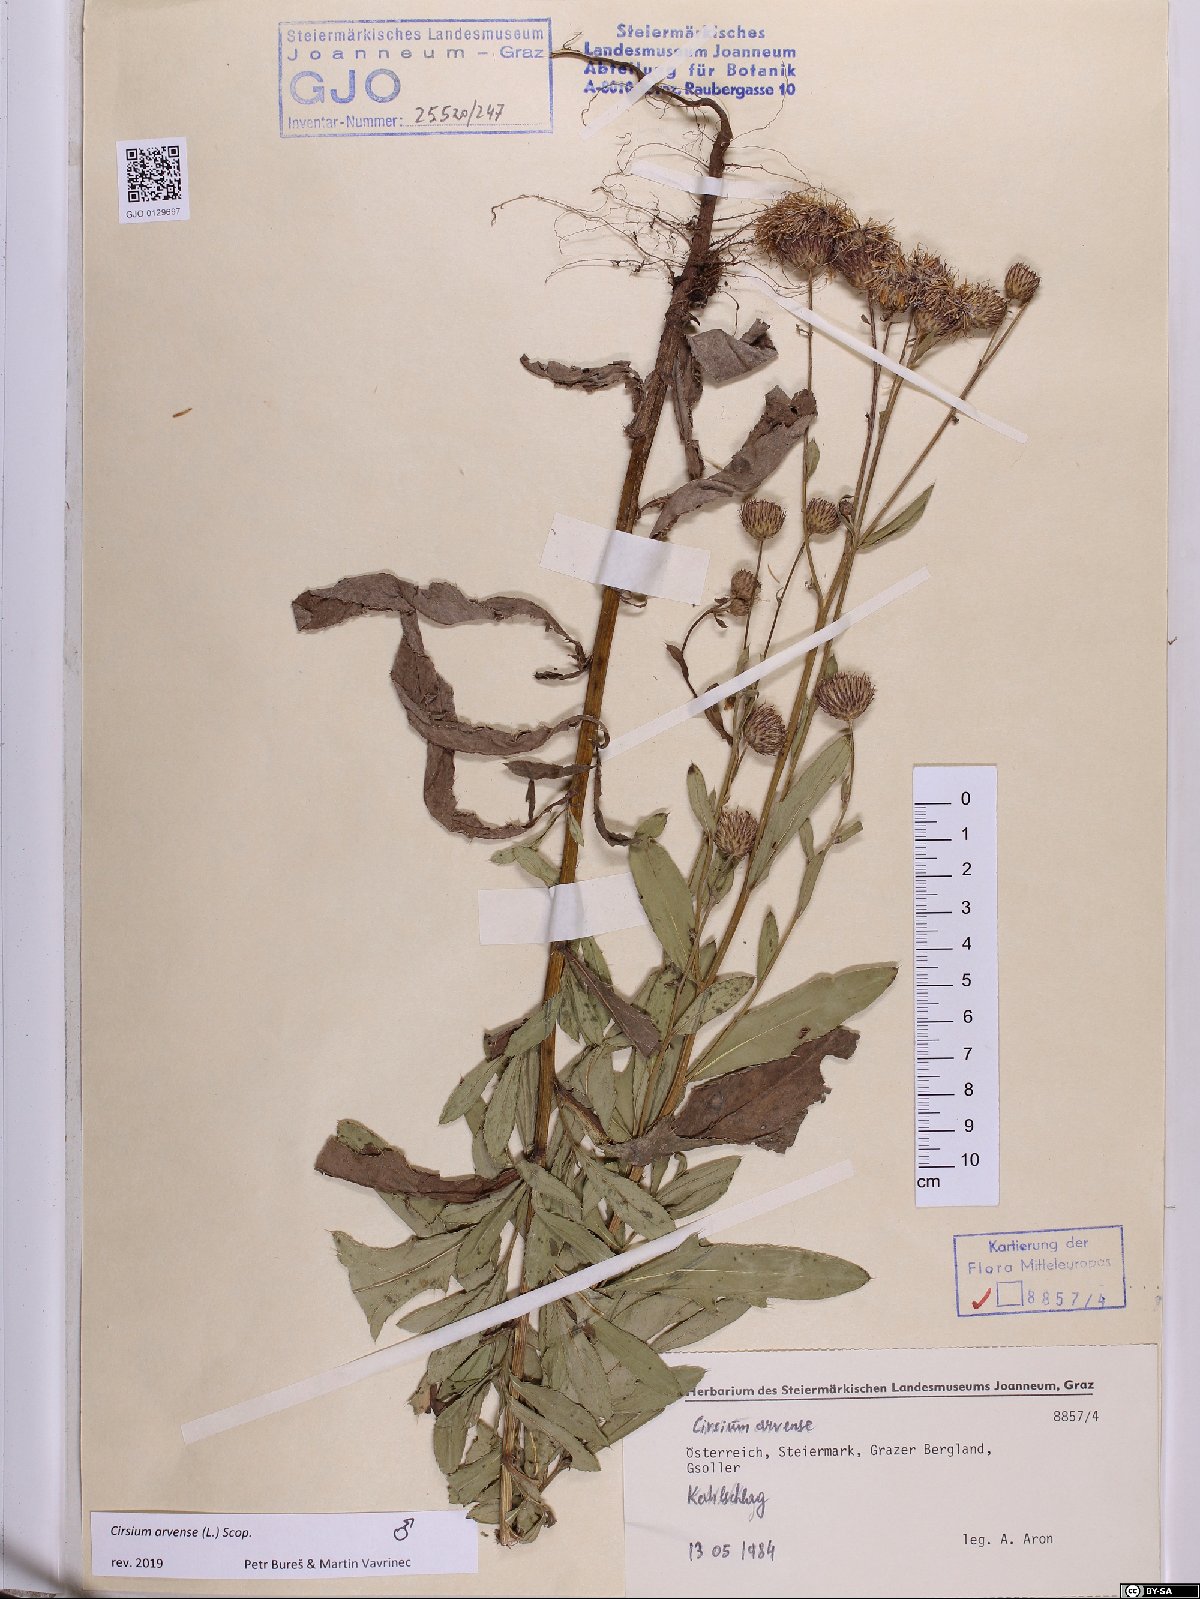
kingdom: Plantae
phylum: Tracheophyta
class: Magnoliopsida
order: Asterales
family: Asteraceae
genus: Cirsium
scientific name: Cirsium arvense
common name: Creeping thistle
